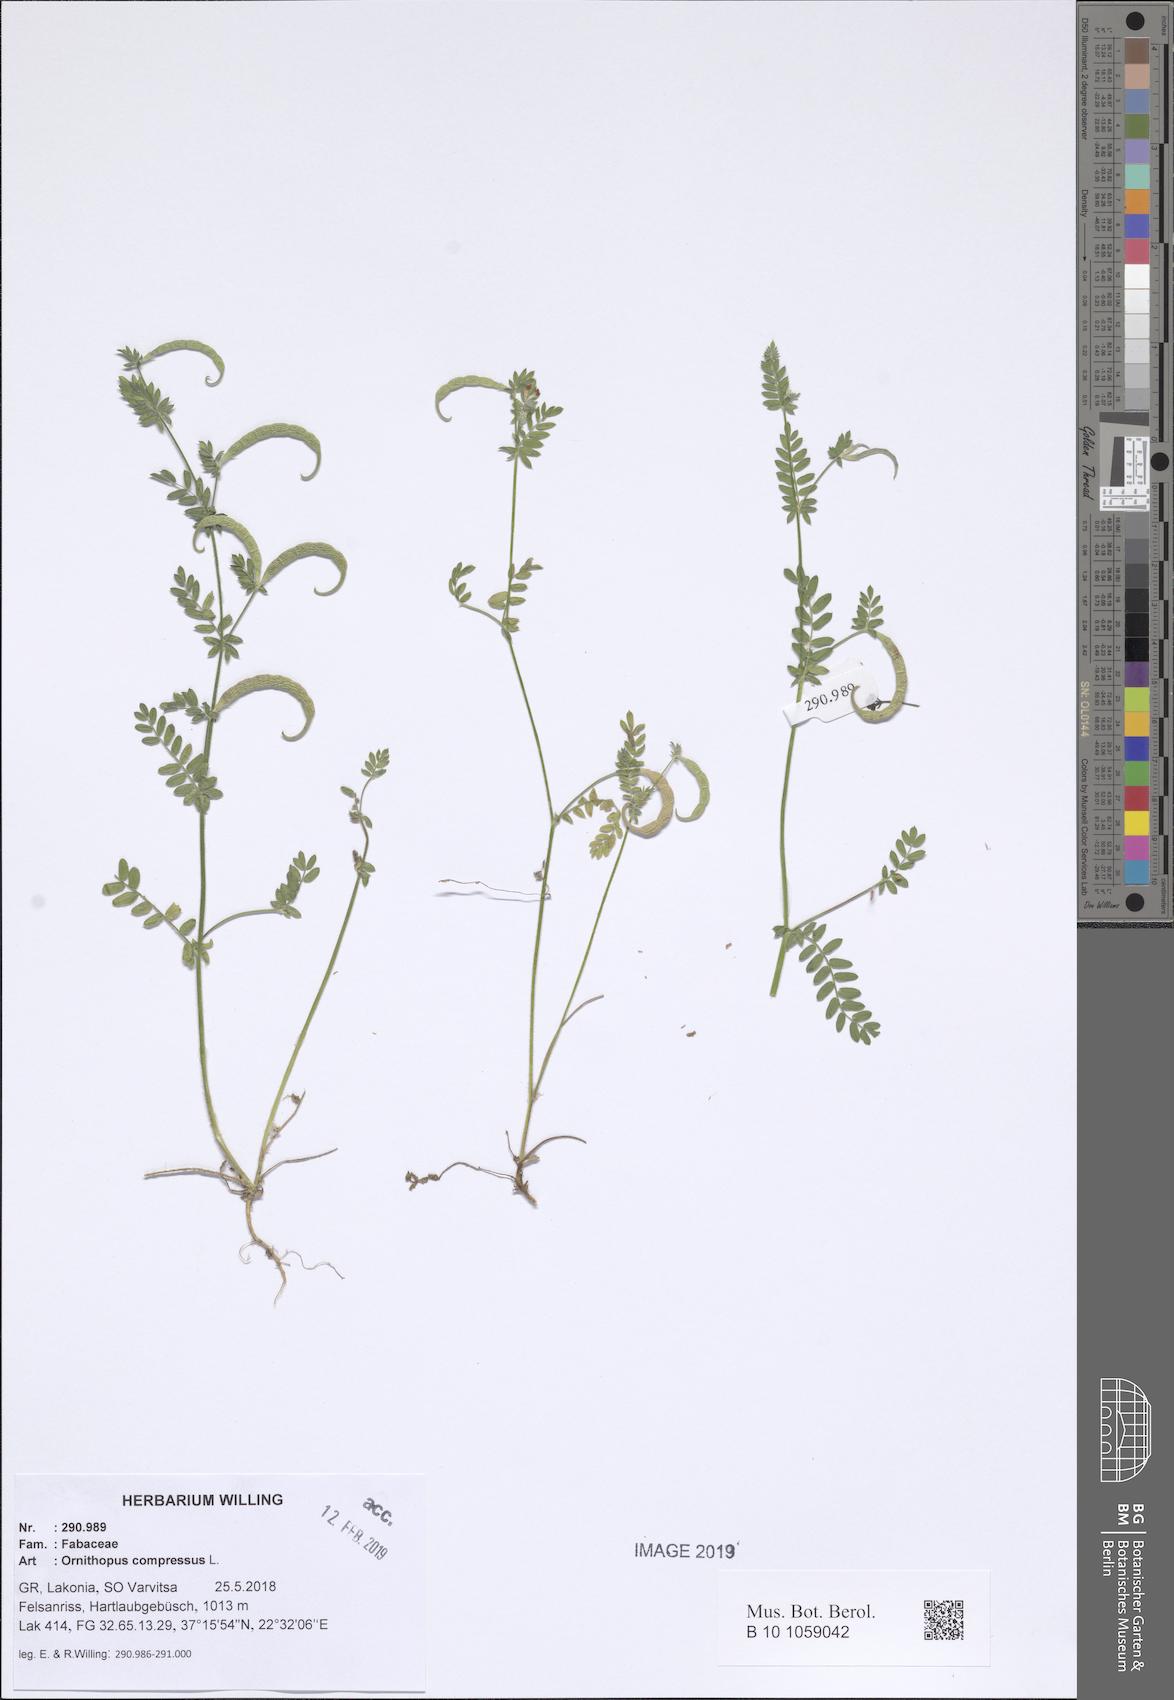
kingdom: Plantae
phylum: Tracheophyta
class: Magnoliopsida
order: Fabales
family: Fabaceae
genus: Ornithopus
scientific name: Ornithopus compressus
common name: Yellow serradella
